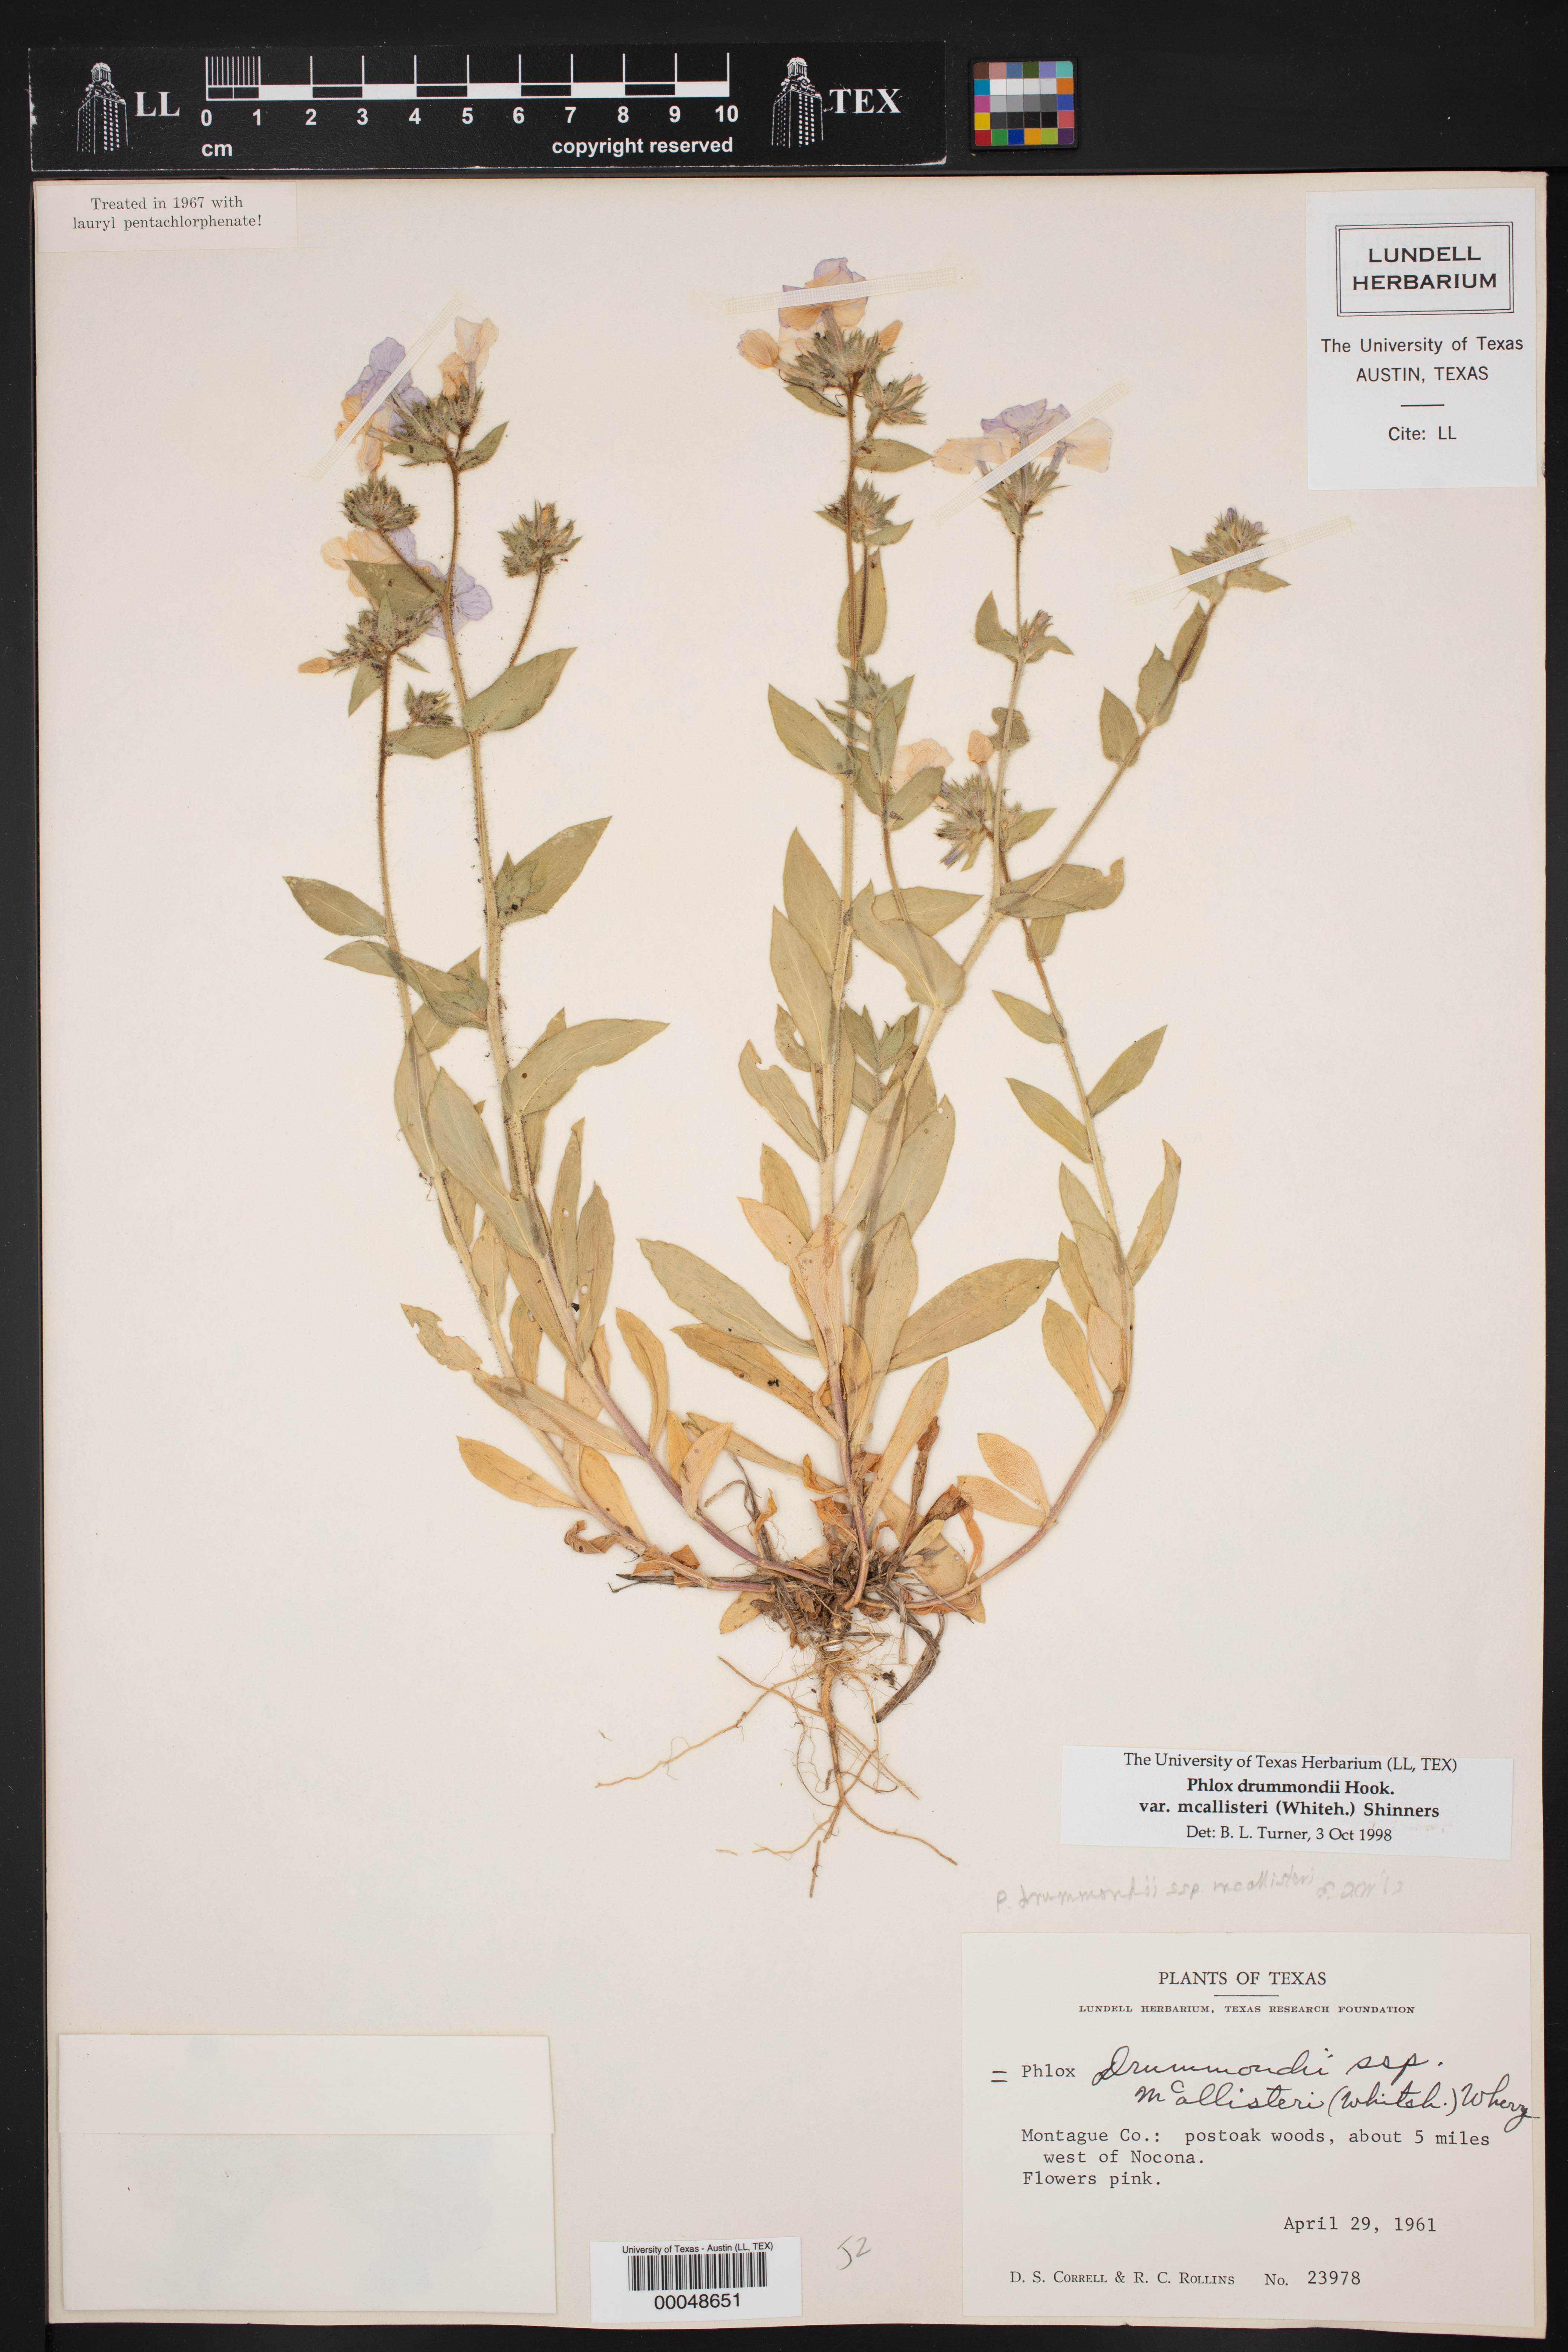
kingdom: Plantae
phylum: Tracheophyta
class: Magnoliopsida
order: Ericales
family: Polemoniaceae
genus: Phlox
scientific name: Phlox drummondii
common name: Drummond's phlox
